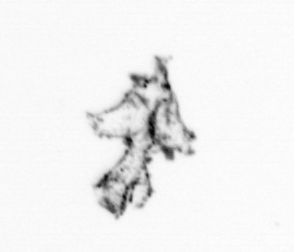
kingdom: Animalia
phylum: Cnidaria
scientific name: Cnidaria
